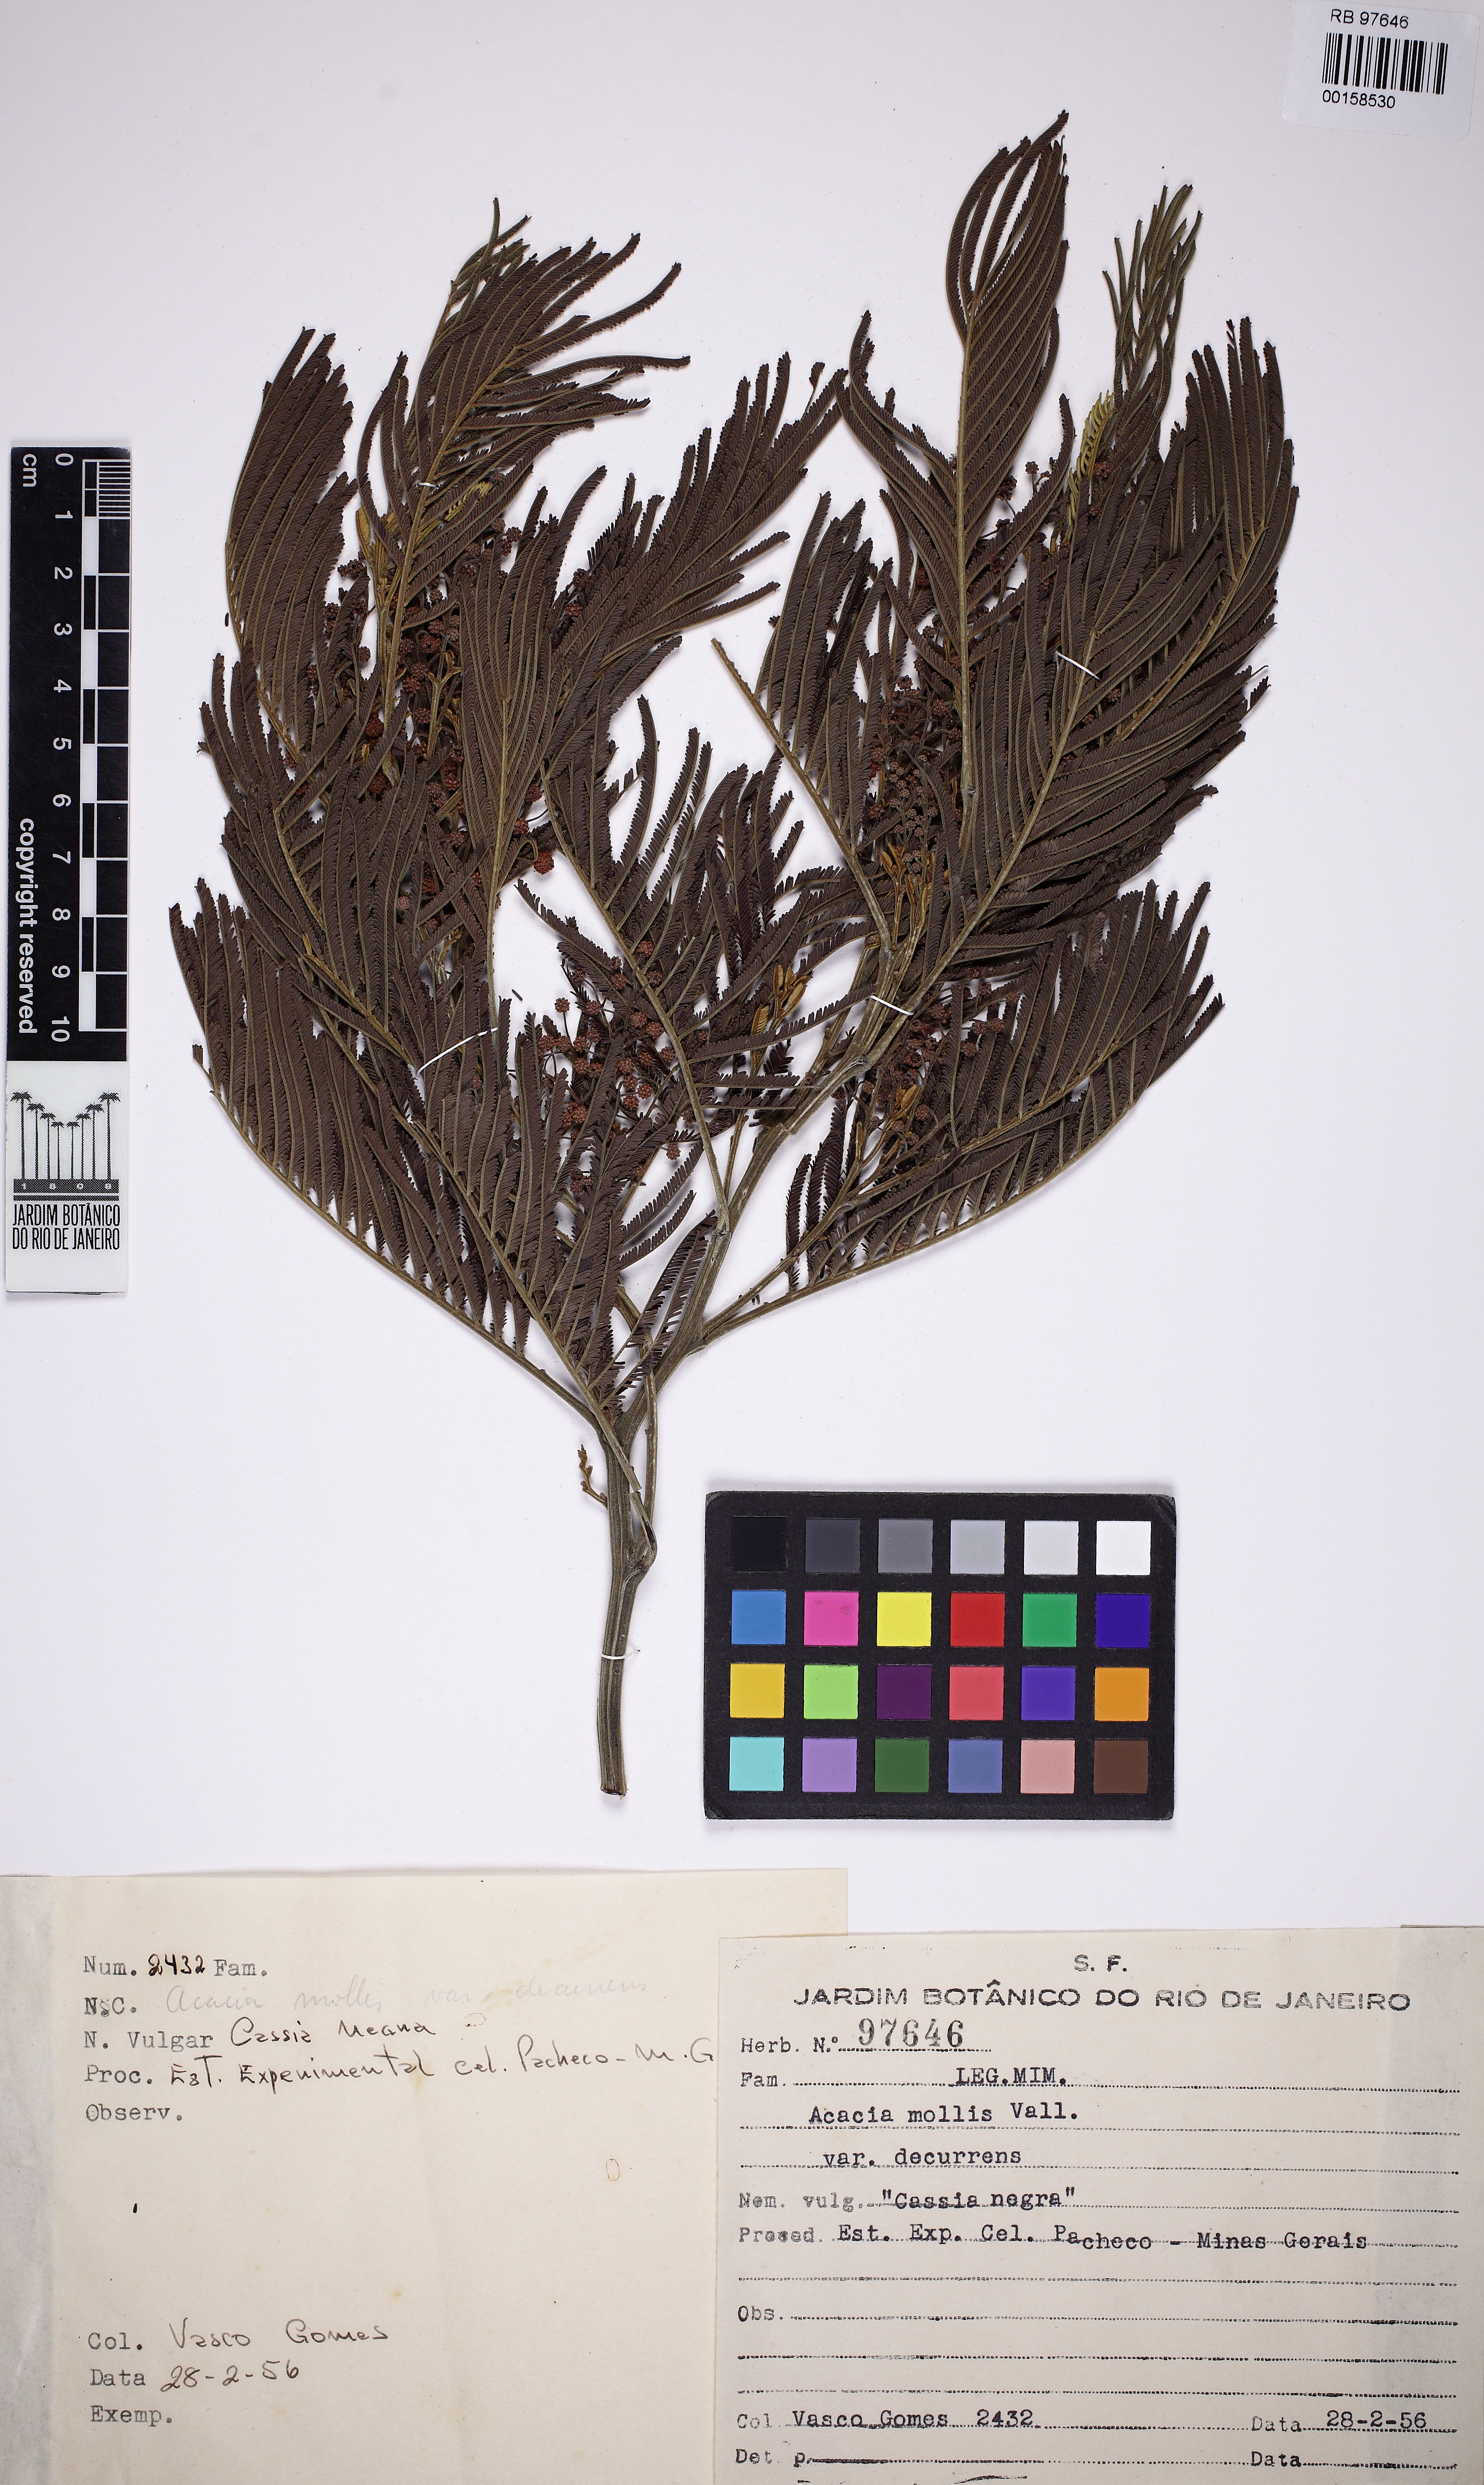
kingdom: Plantae
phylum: Tracheophyta
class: Magnoliopsida
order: Fabales
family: Fabaceae
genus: Acacia
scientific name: Acacia mollis
